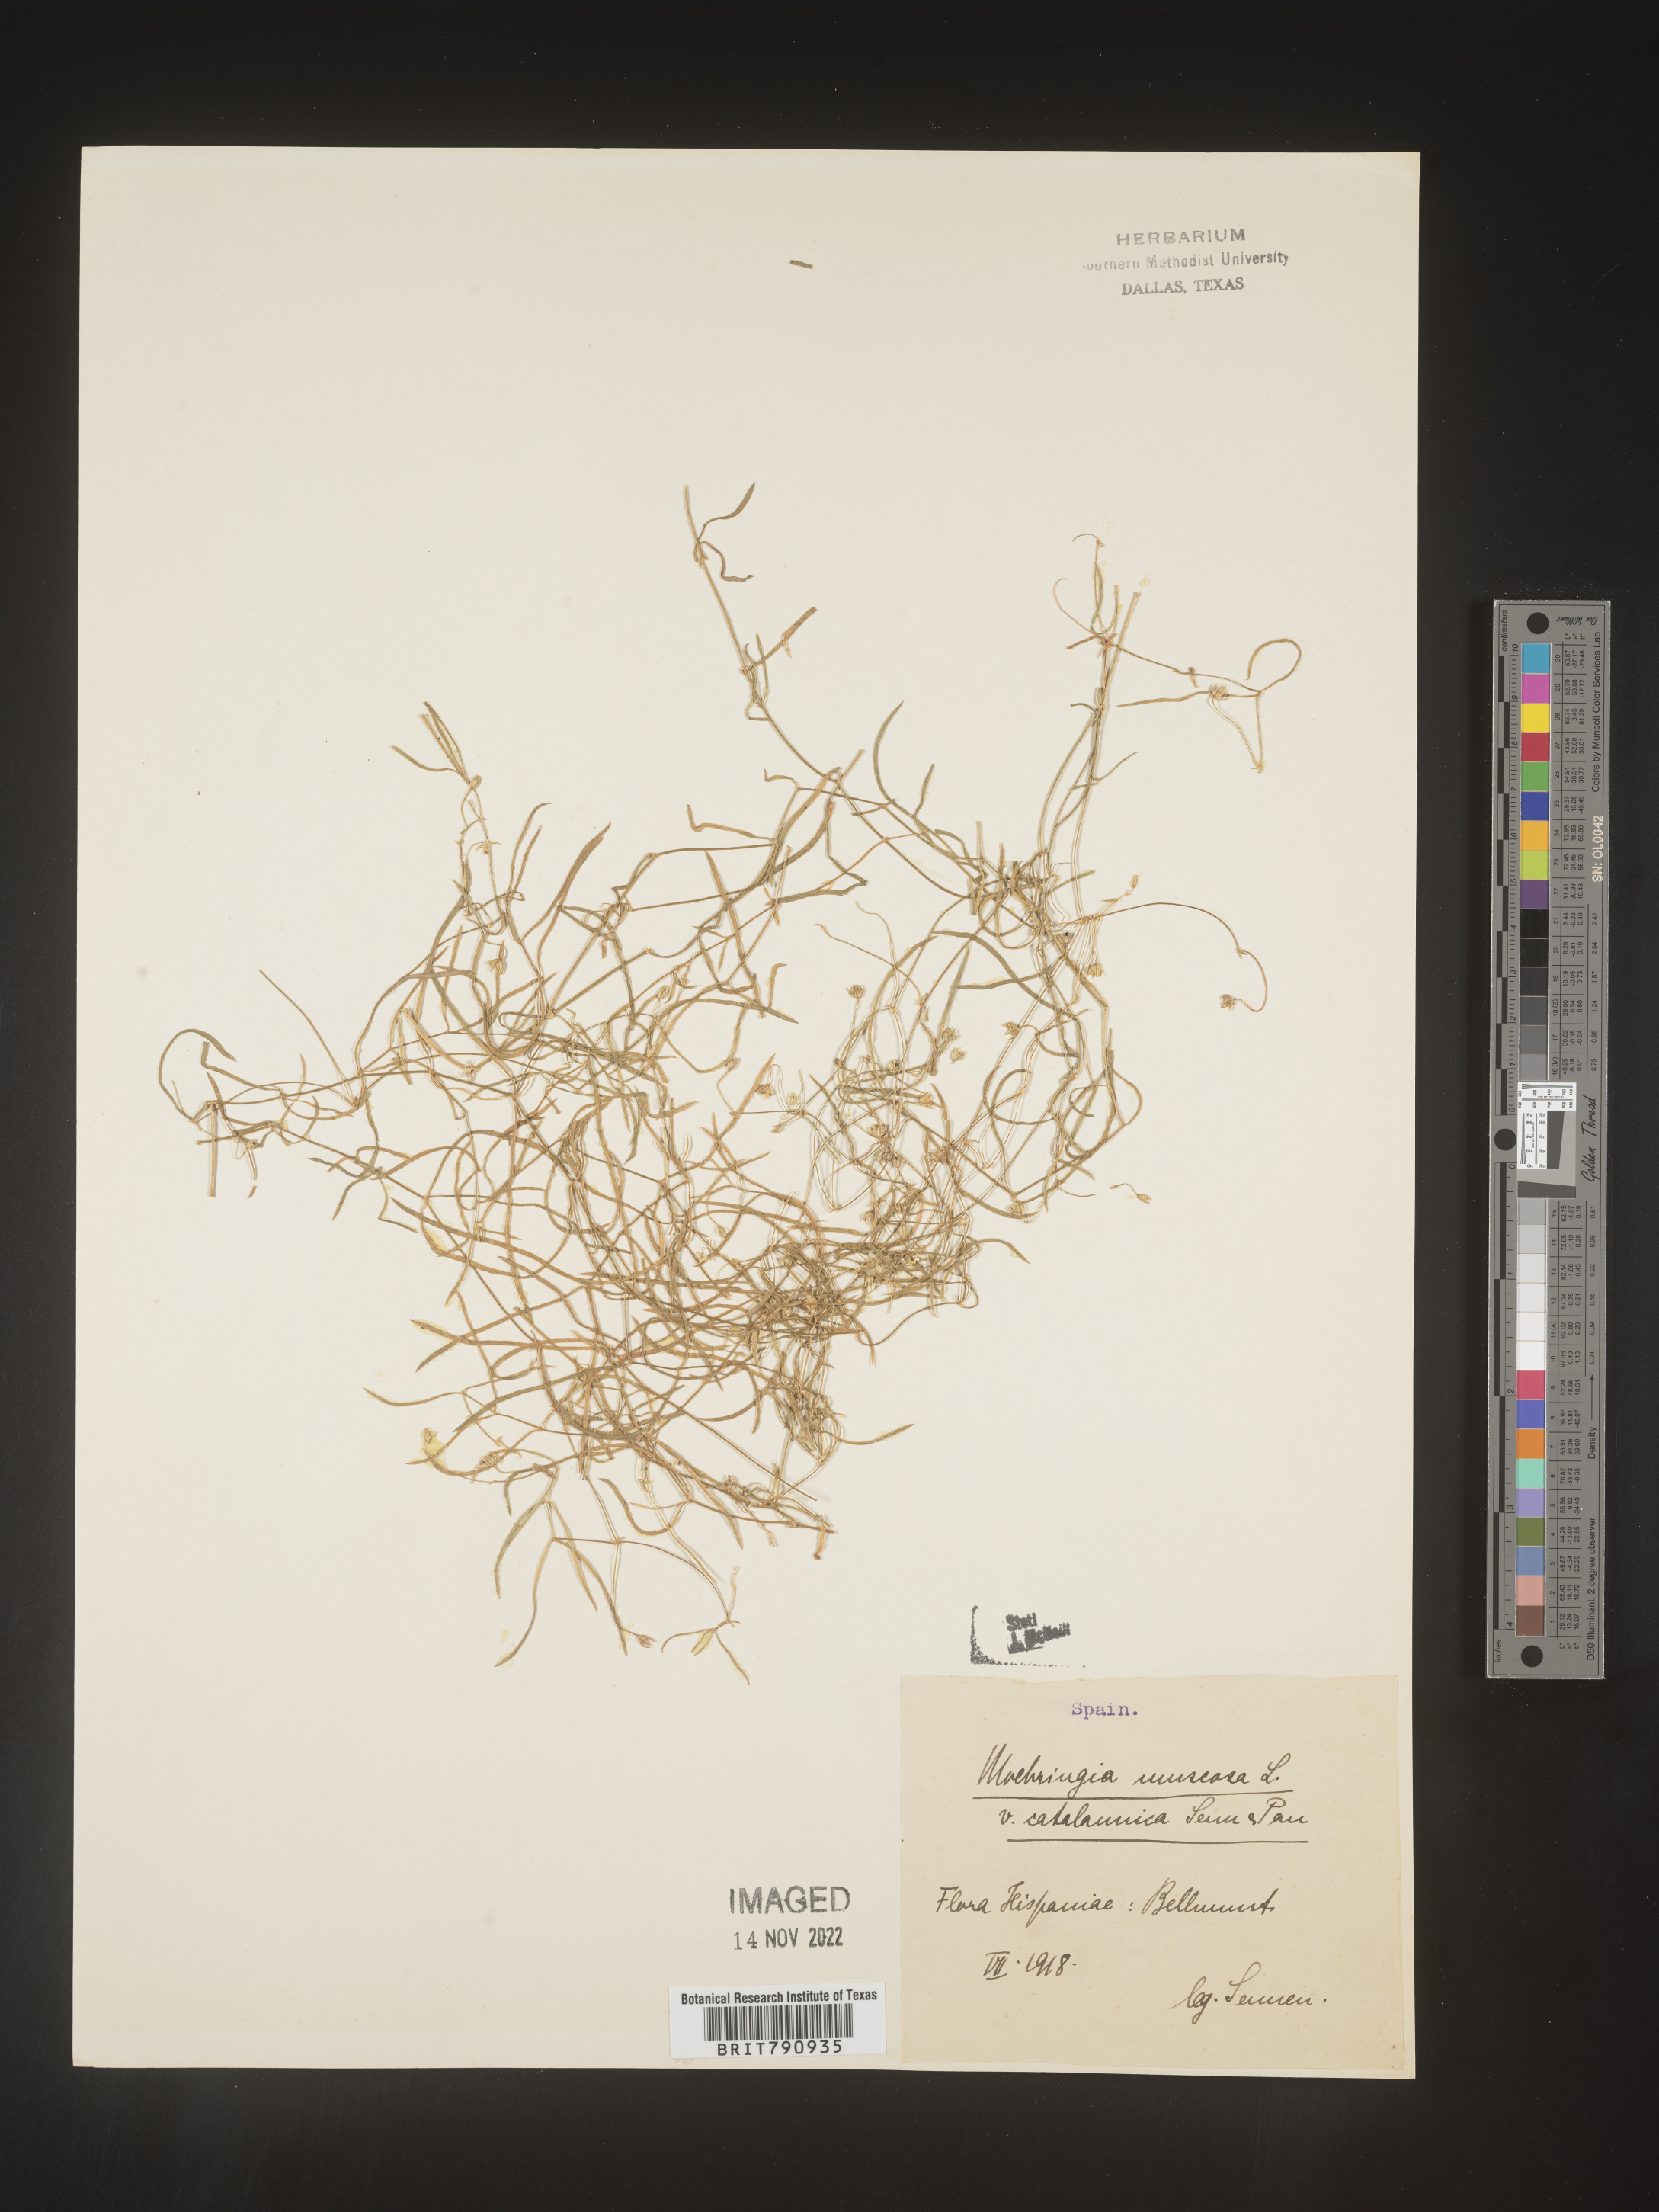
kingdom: Plantae
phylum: Tracheophyta
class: Magnoliopsida
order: Caryophyllales
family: Caryophyllaceae
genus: Moehringia
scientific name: Moehringia
